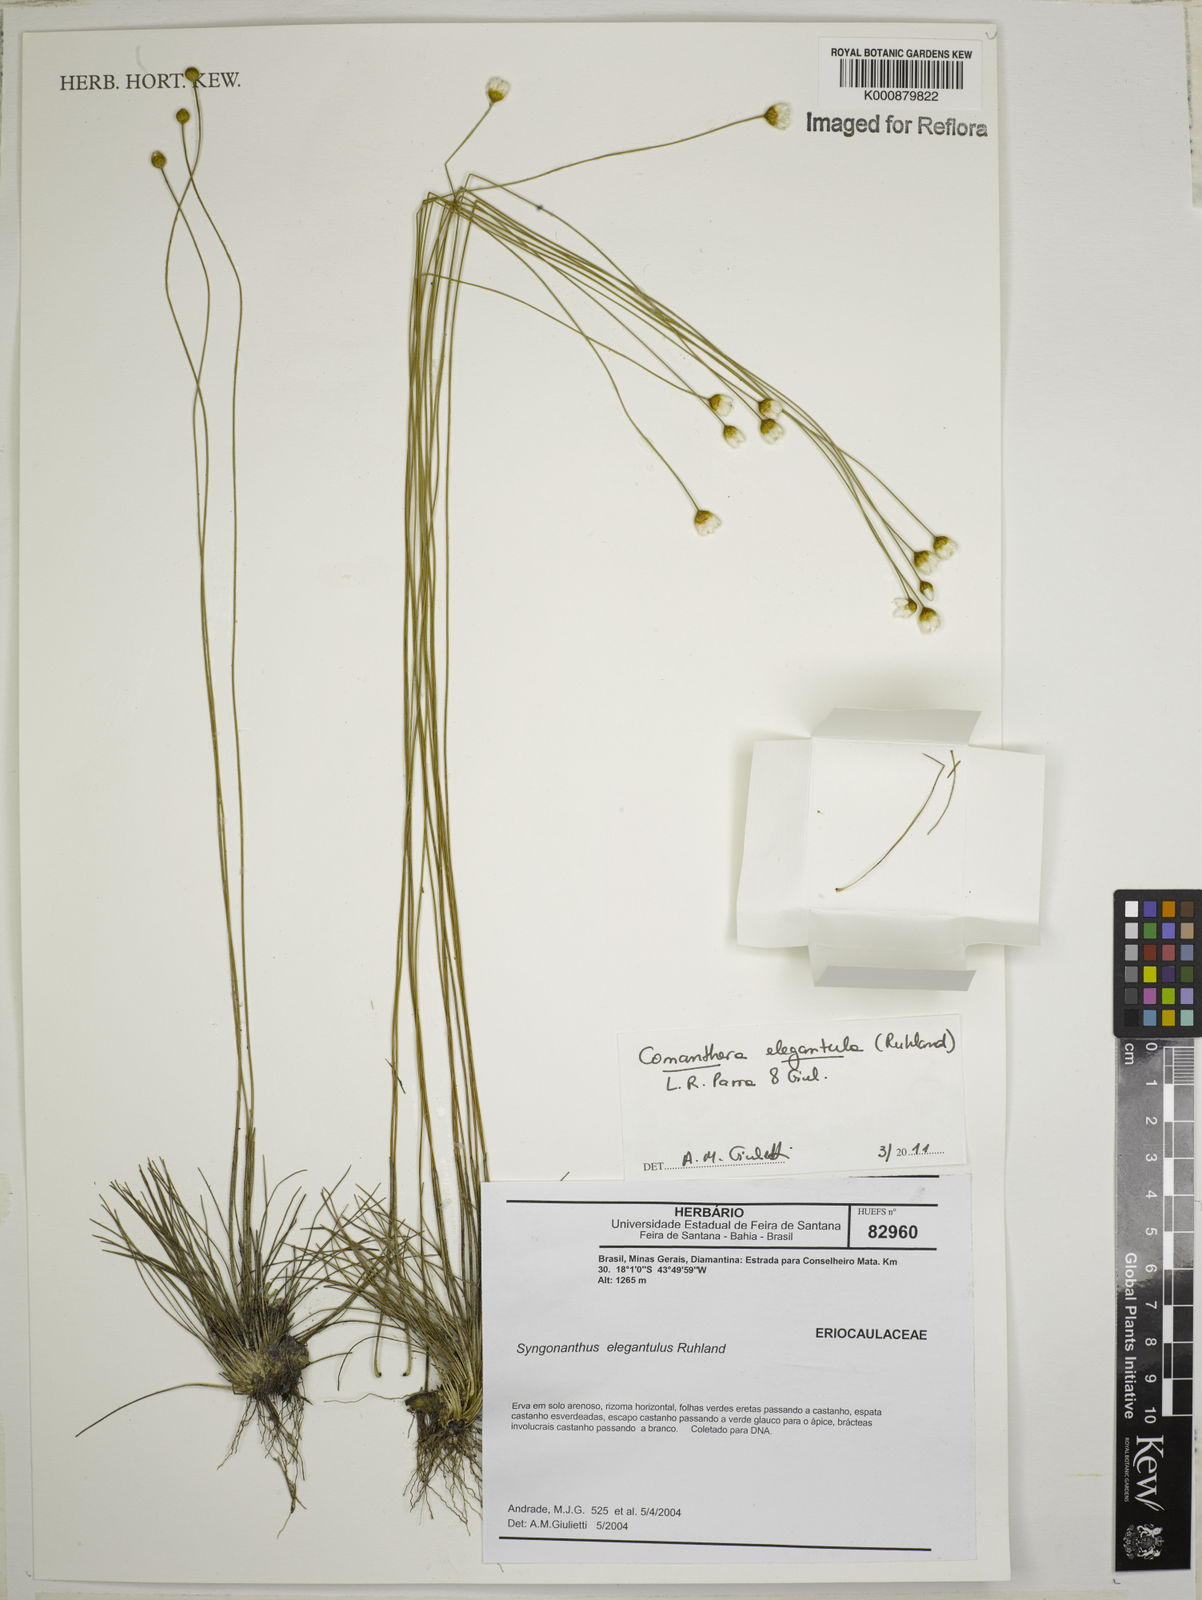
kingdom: Plantae
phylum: Tracheophyta
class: Liliopsida
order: Poales
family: Eriocaulaceae
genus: Comanthera
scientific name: Comanthera elegantula
